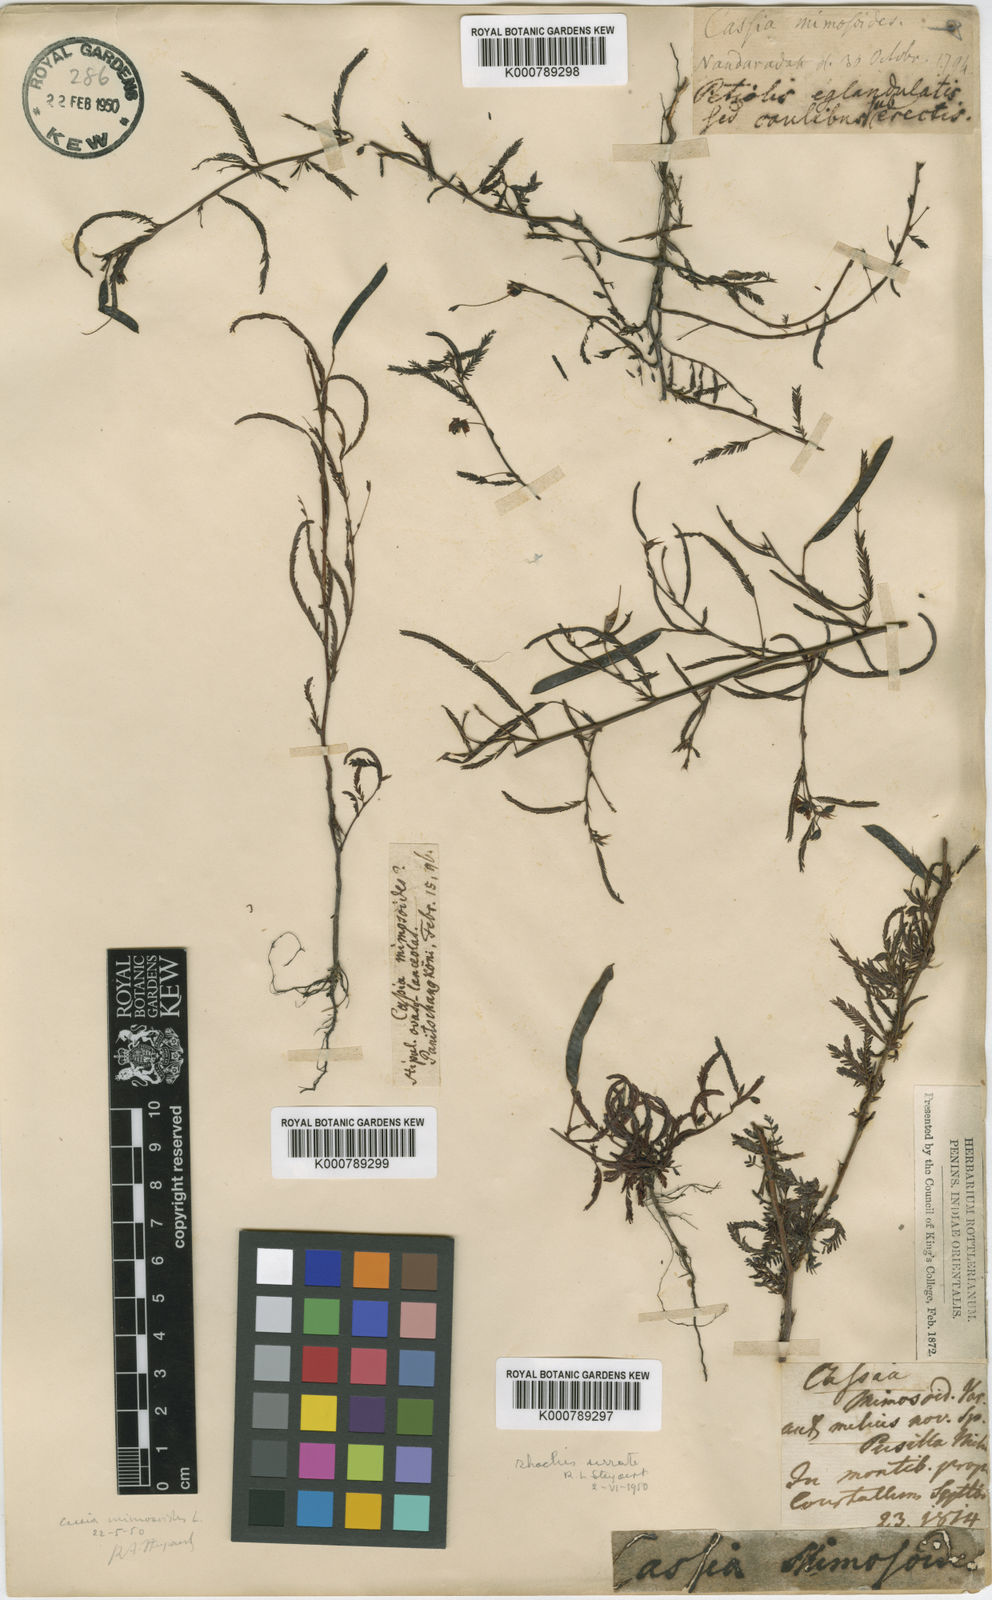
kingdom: Plantae
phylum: Tracheophyta
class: Magnoliopsida
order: Fabales
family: Fabaceae
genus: Chamaecrista
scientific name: Chamaecrista mimosoides
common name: Fish-bone cassia
